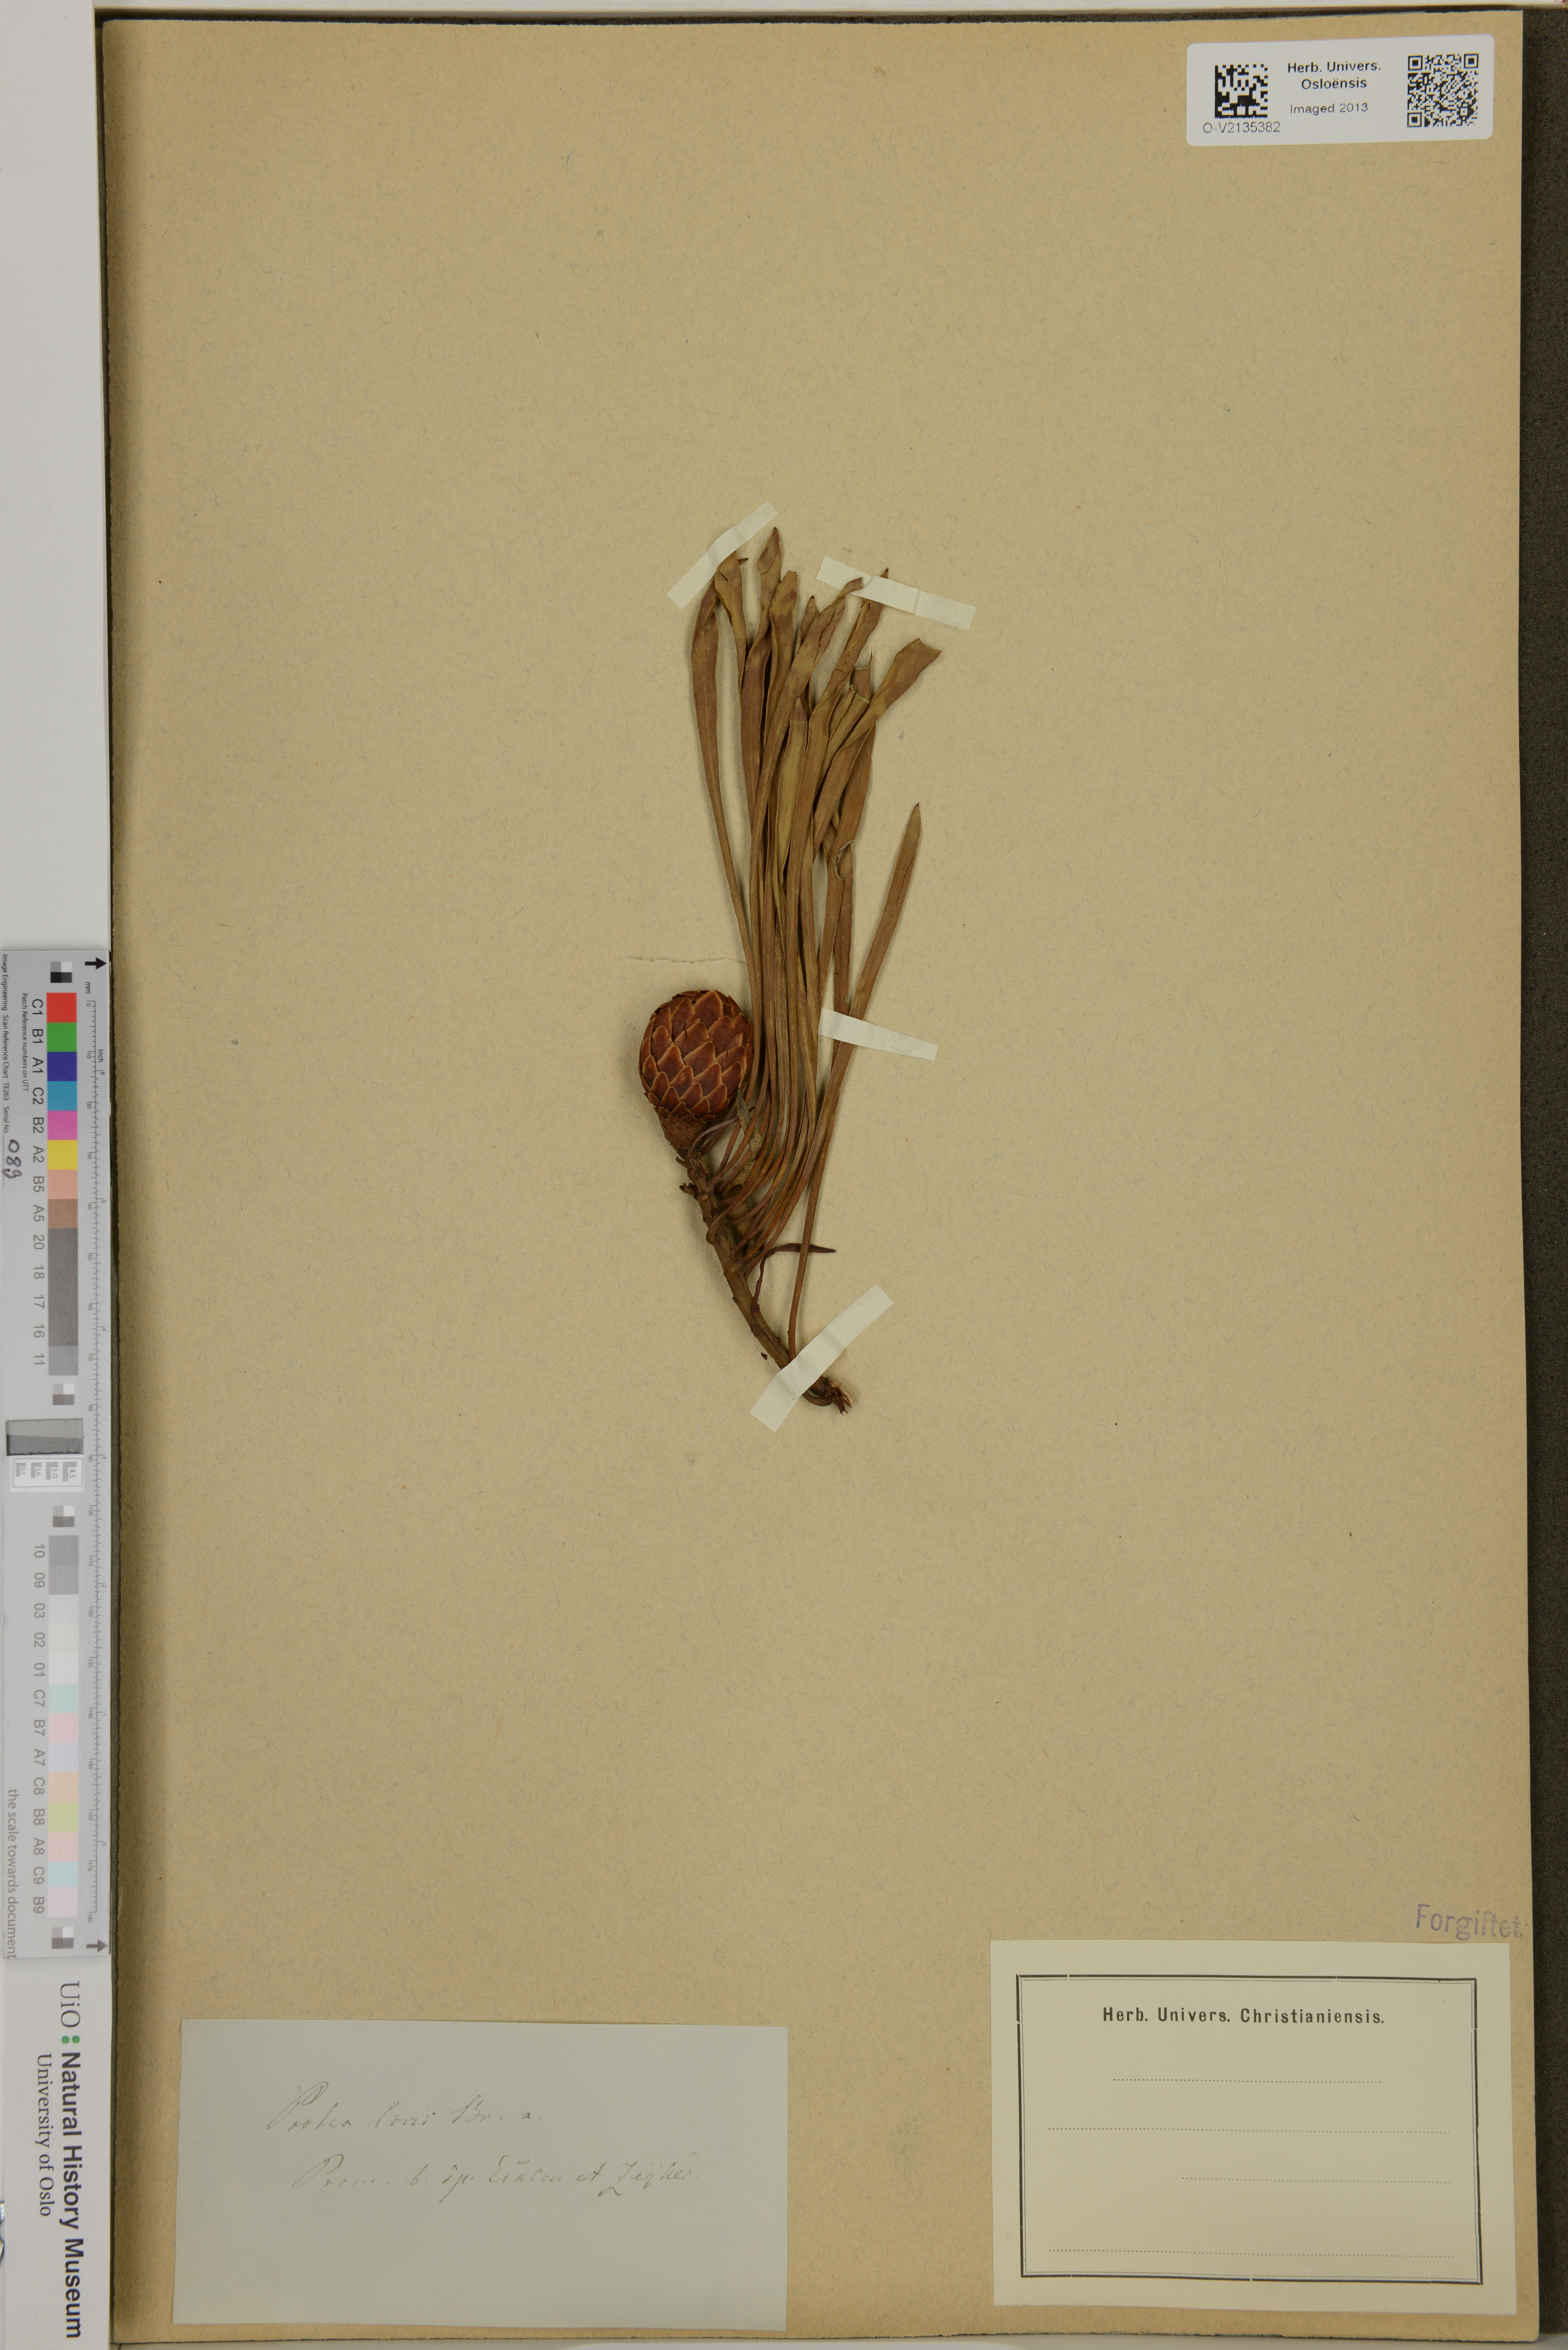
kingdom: Plantae
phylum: Tracheophyta
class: Magnoliopsida
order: Proteales
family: Proteaceae
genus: Protea
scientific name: Protea laevis
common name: Smooth-leaf sugarbush
